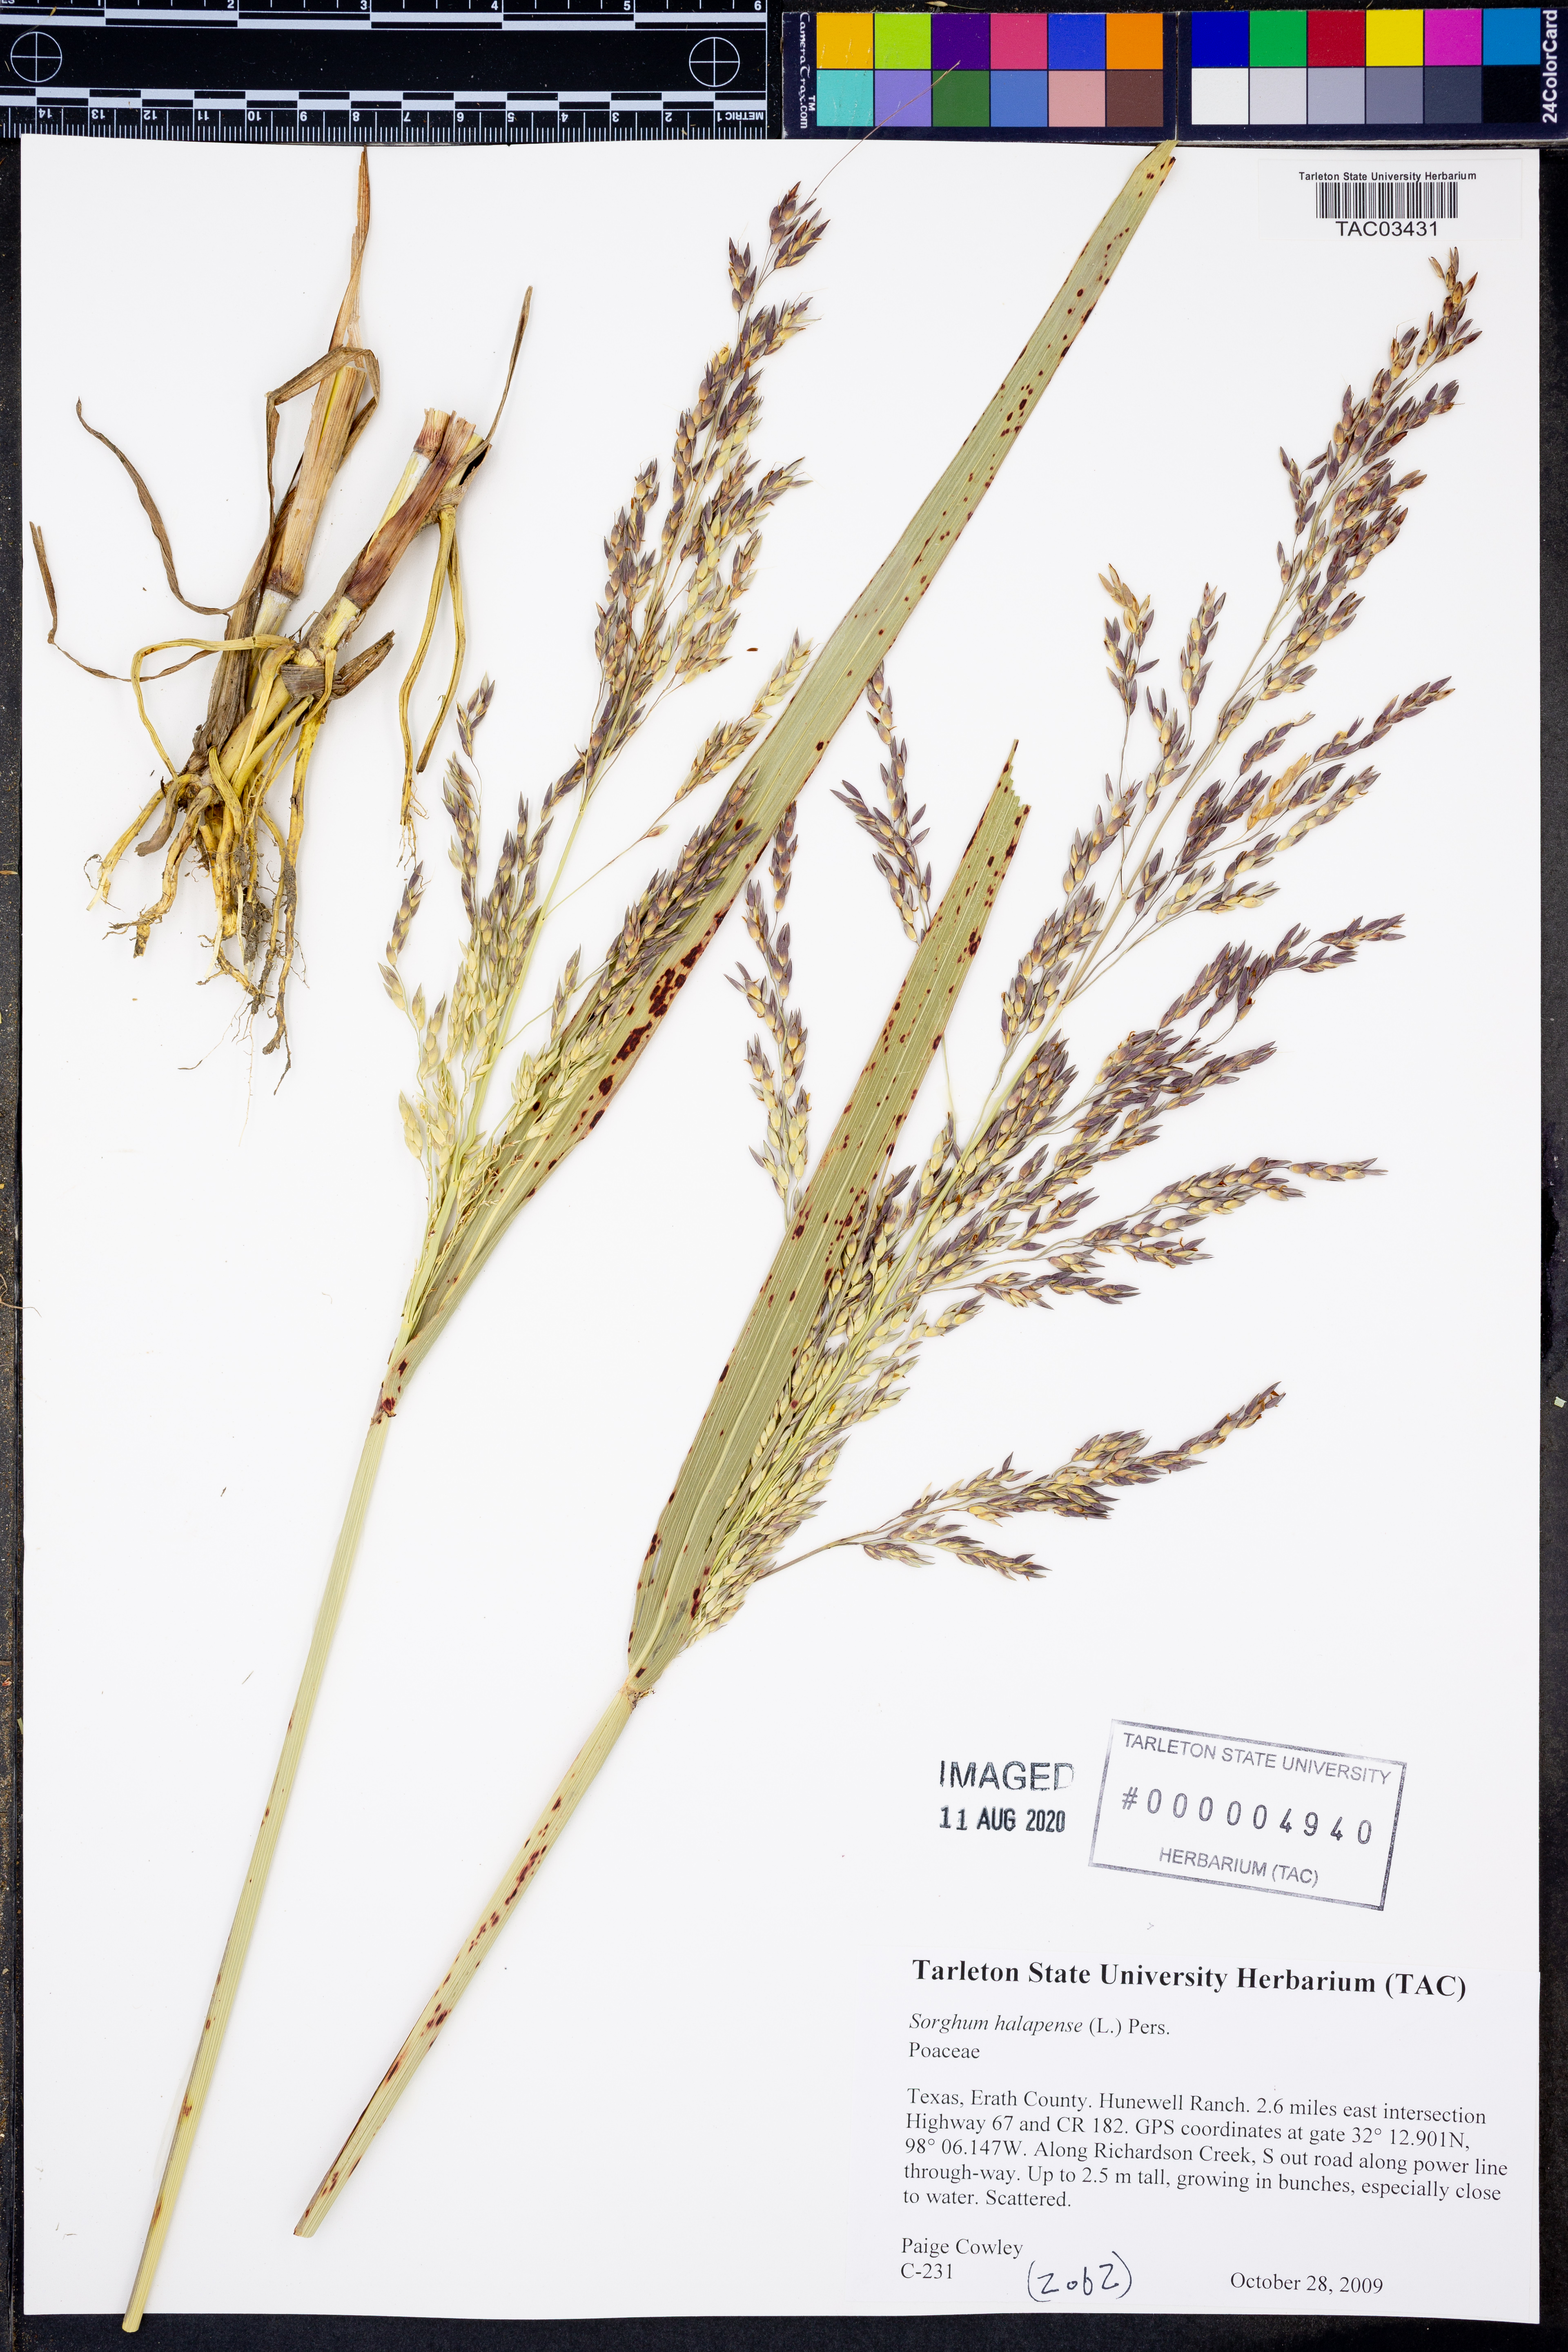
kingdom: Plantae
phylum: Tracheophyta
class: Liliopsida
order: Poales
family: Poaceae
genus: Sorghum
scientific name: Sorghum halepense
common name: Johnson-grass
